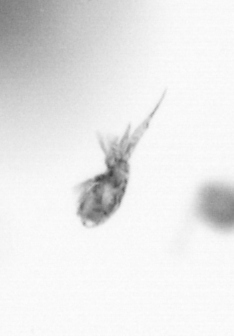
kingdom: Animalia
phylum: Arthropoda
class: Copepoda
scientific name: Copepoda
